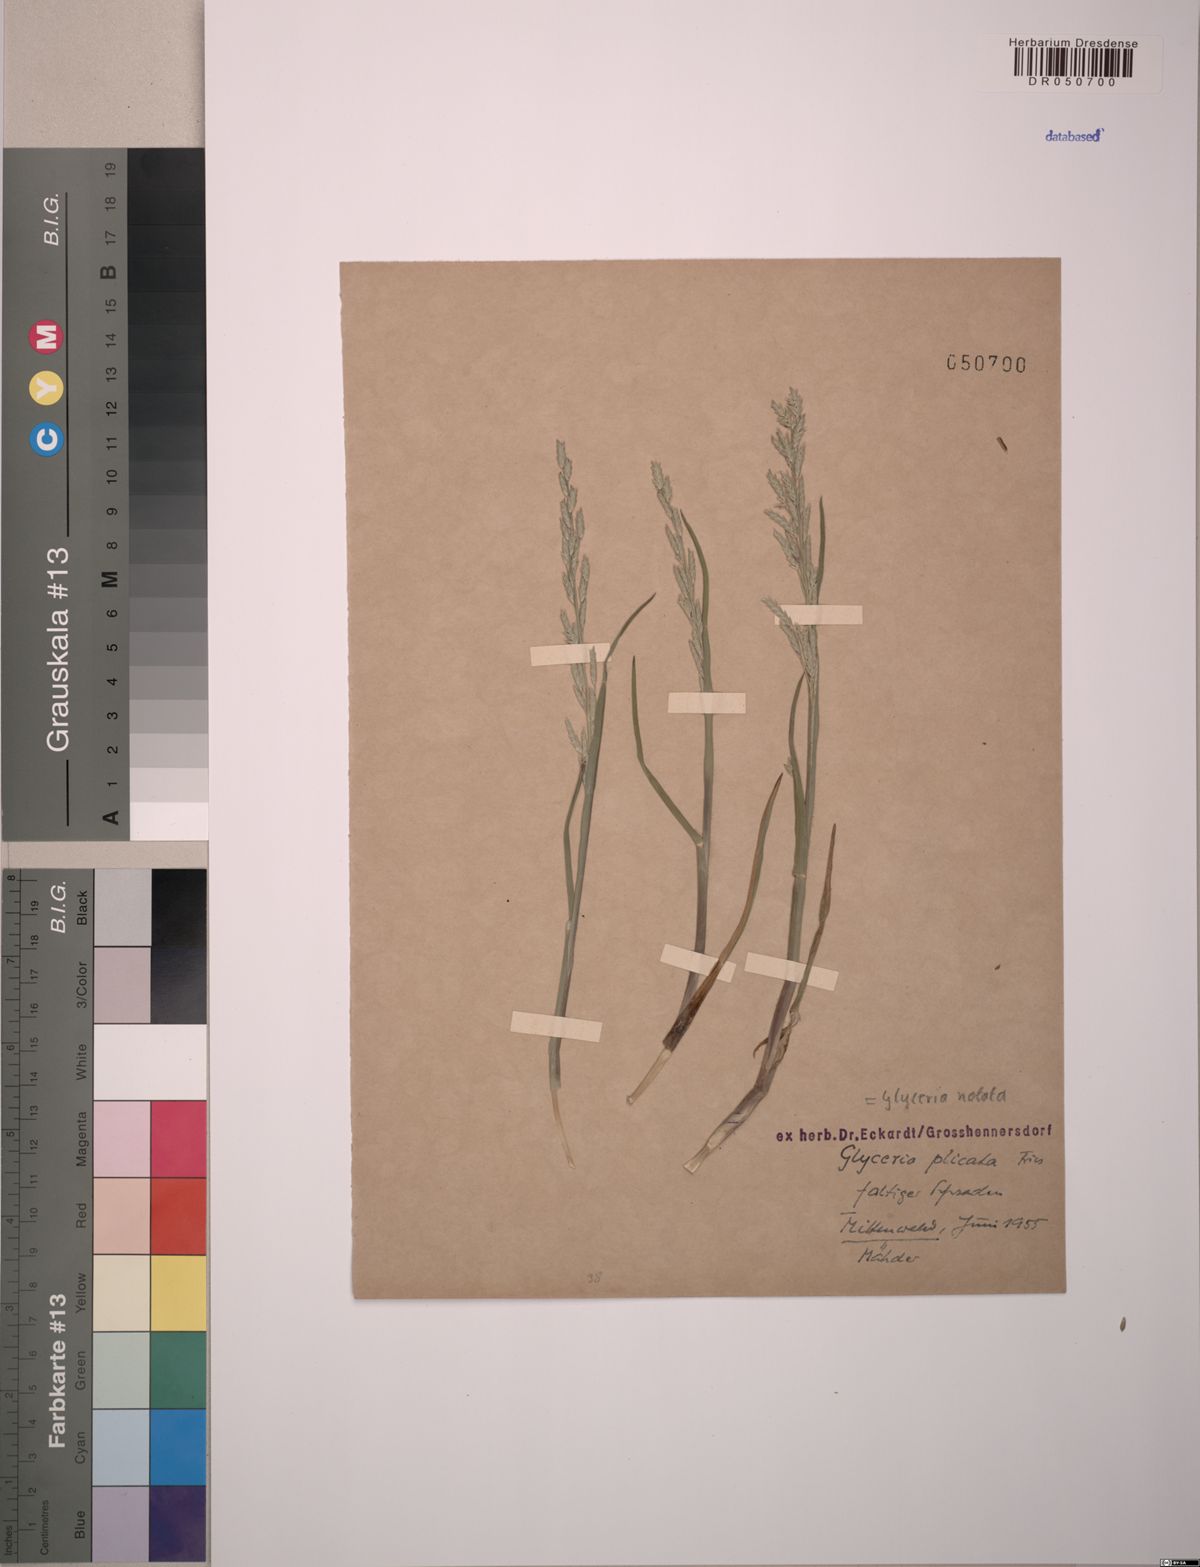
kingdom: Plantae
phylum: Tracheophyta
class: Liliopsida
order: Poales
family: Poaceae
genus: Glyceria
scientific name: Glyceria notata
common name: Plicate sweet-grass
